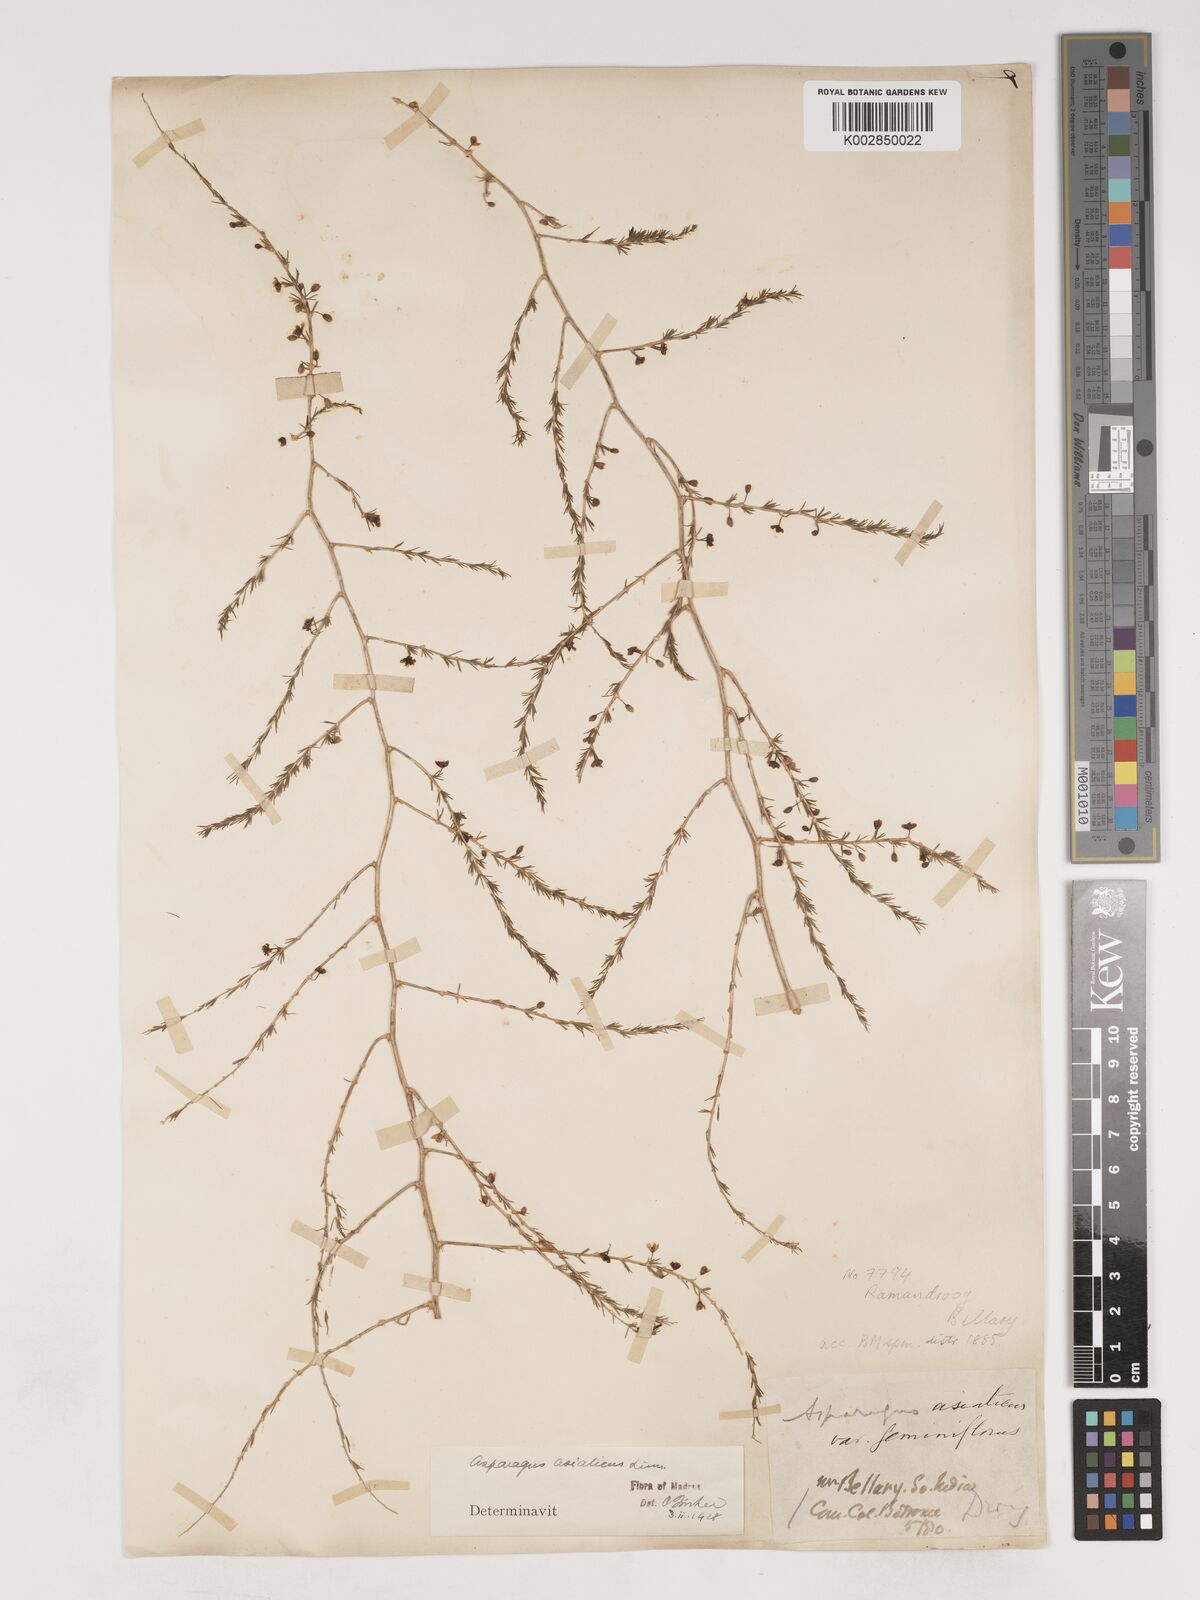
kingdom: Plantae
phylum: Tracheophyta
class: Liliopsida
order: Asparagales
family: Asparagaceae
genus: Asparagus
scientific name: Asparagus africanus
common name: Asparagus-fern
